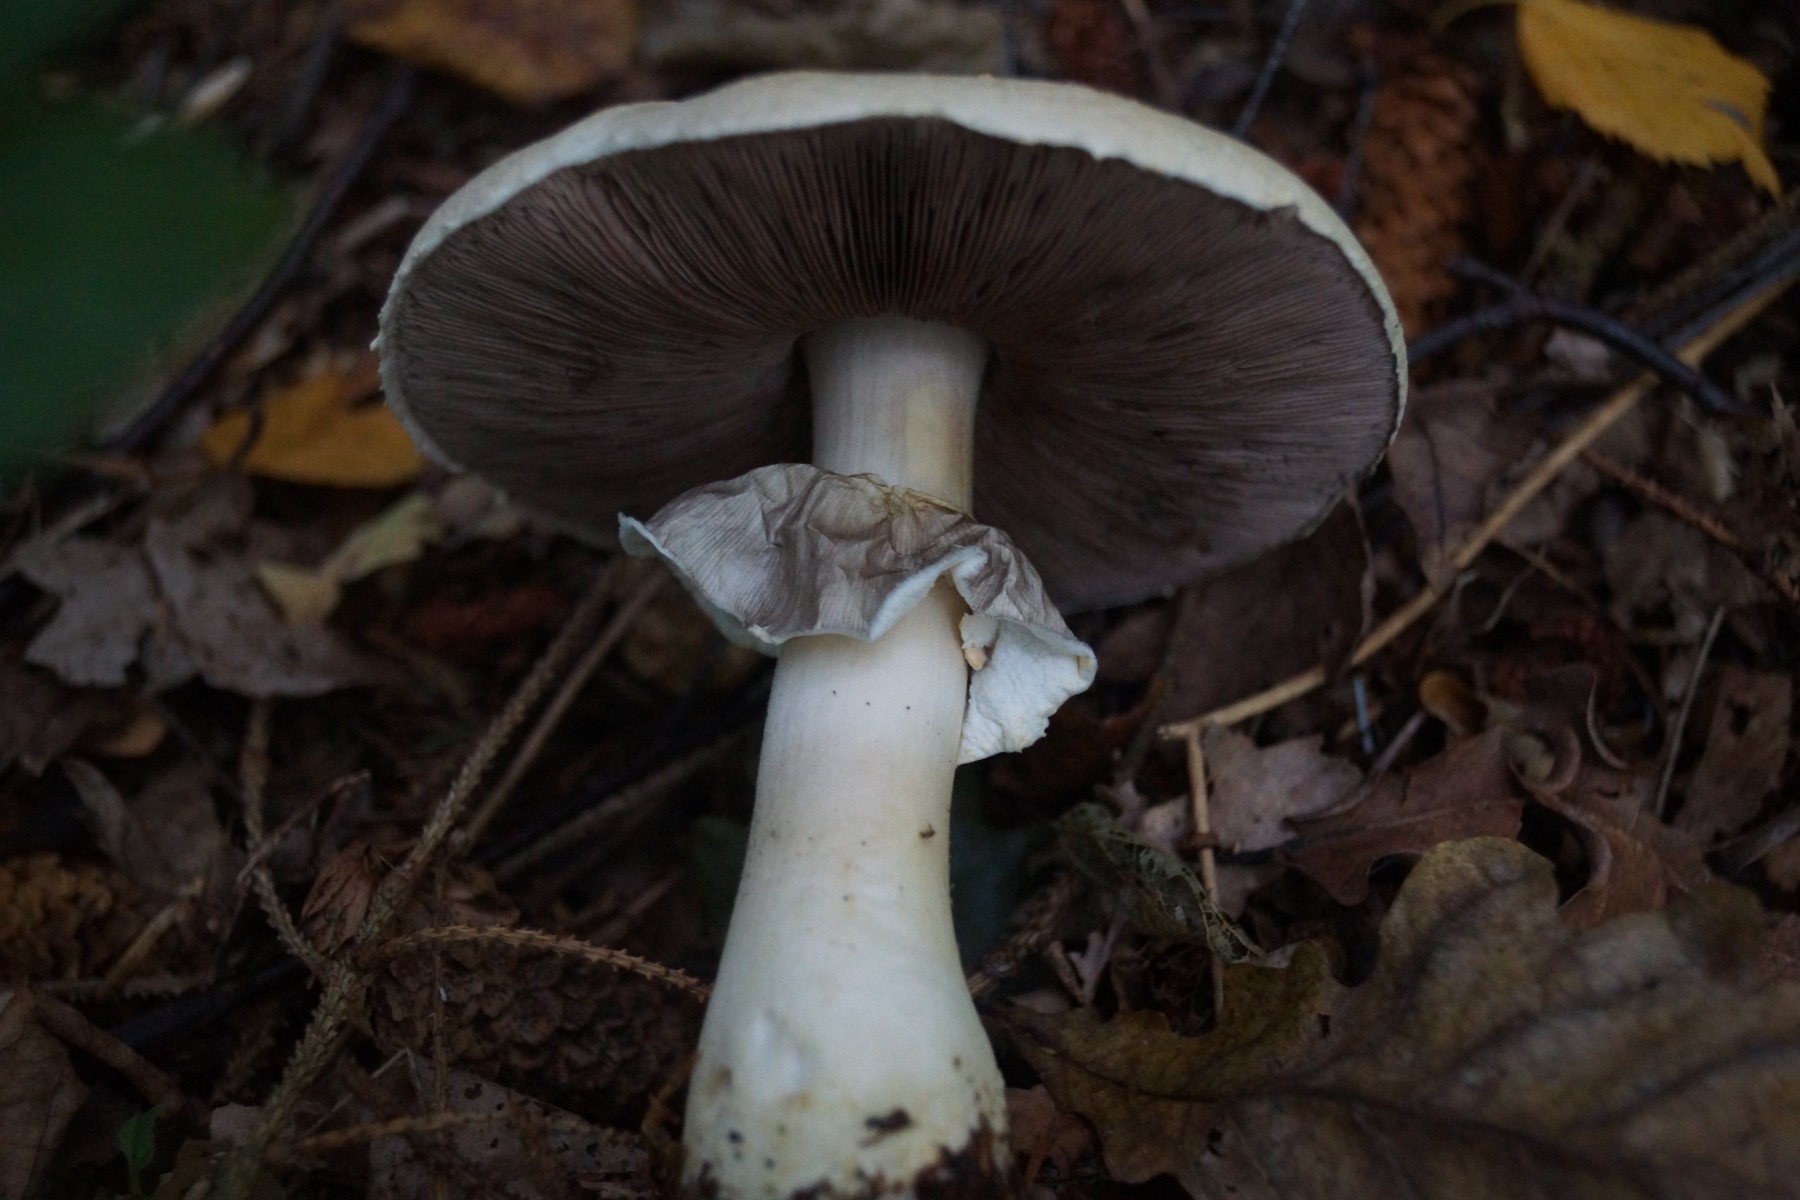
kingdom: Fungi
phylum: Basidiomycota
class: Agaricomycetes
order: Agaricales
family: Agaricaceae
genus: Agaricus
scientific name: Agaricus sylvicola
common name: gulhvid champignon
